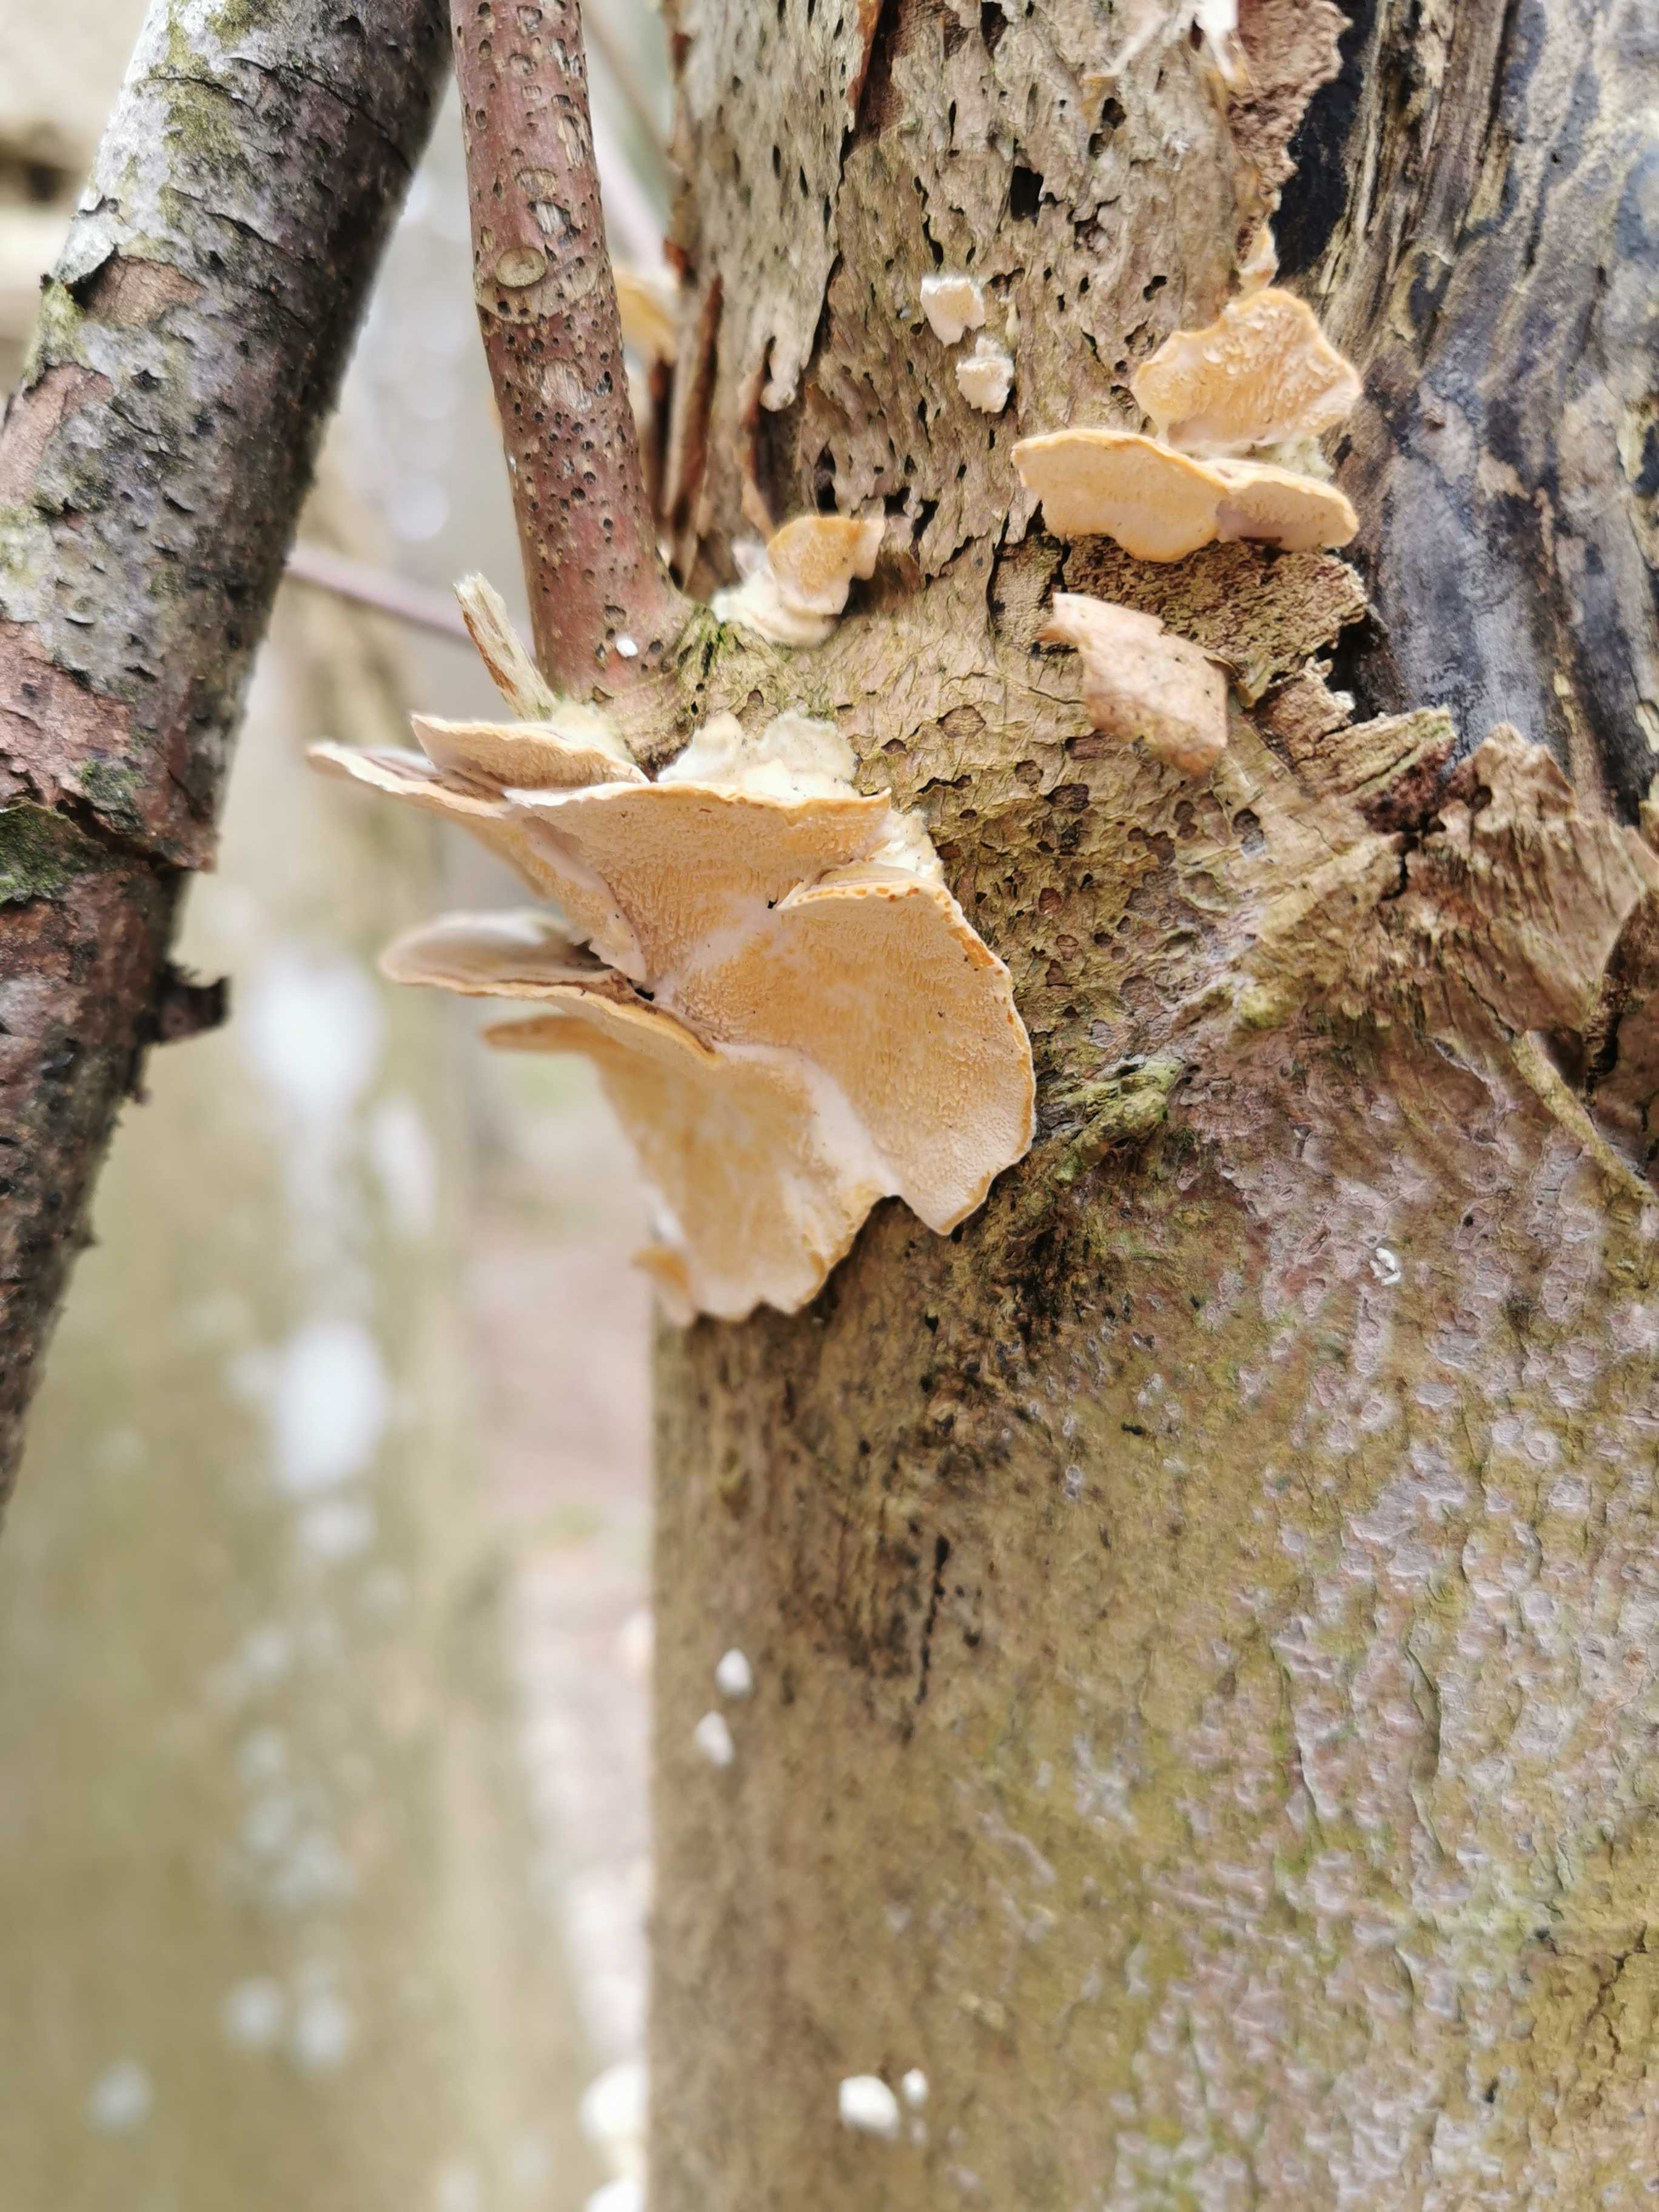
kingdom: Fungi
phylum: Basidiomycota
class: Agaricomycetes
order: Polyporales
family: Polyporaceae
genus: Trametes
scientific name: Trametes ochracea
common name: bæltet læderporesvamp
